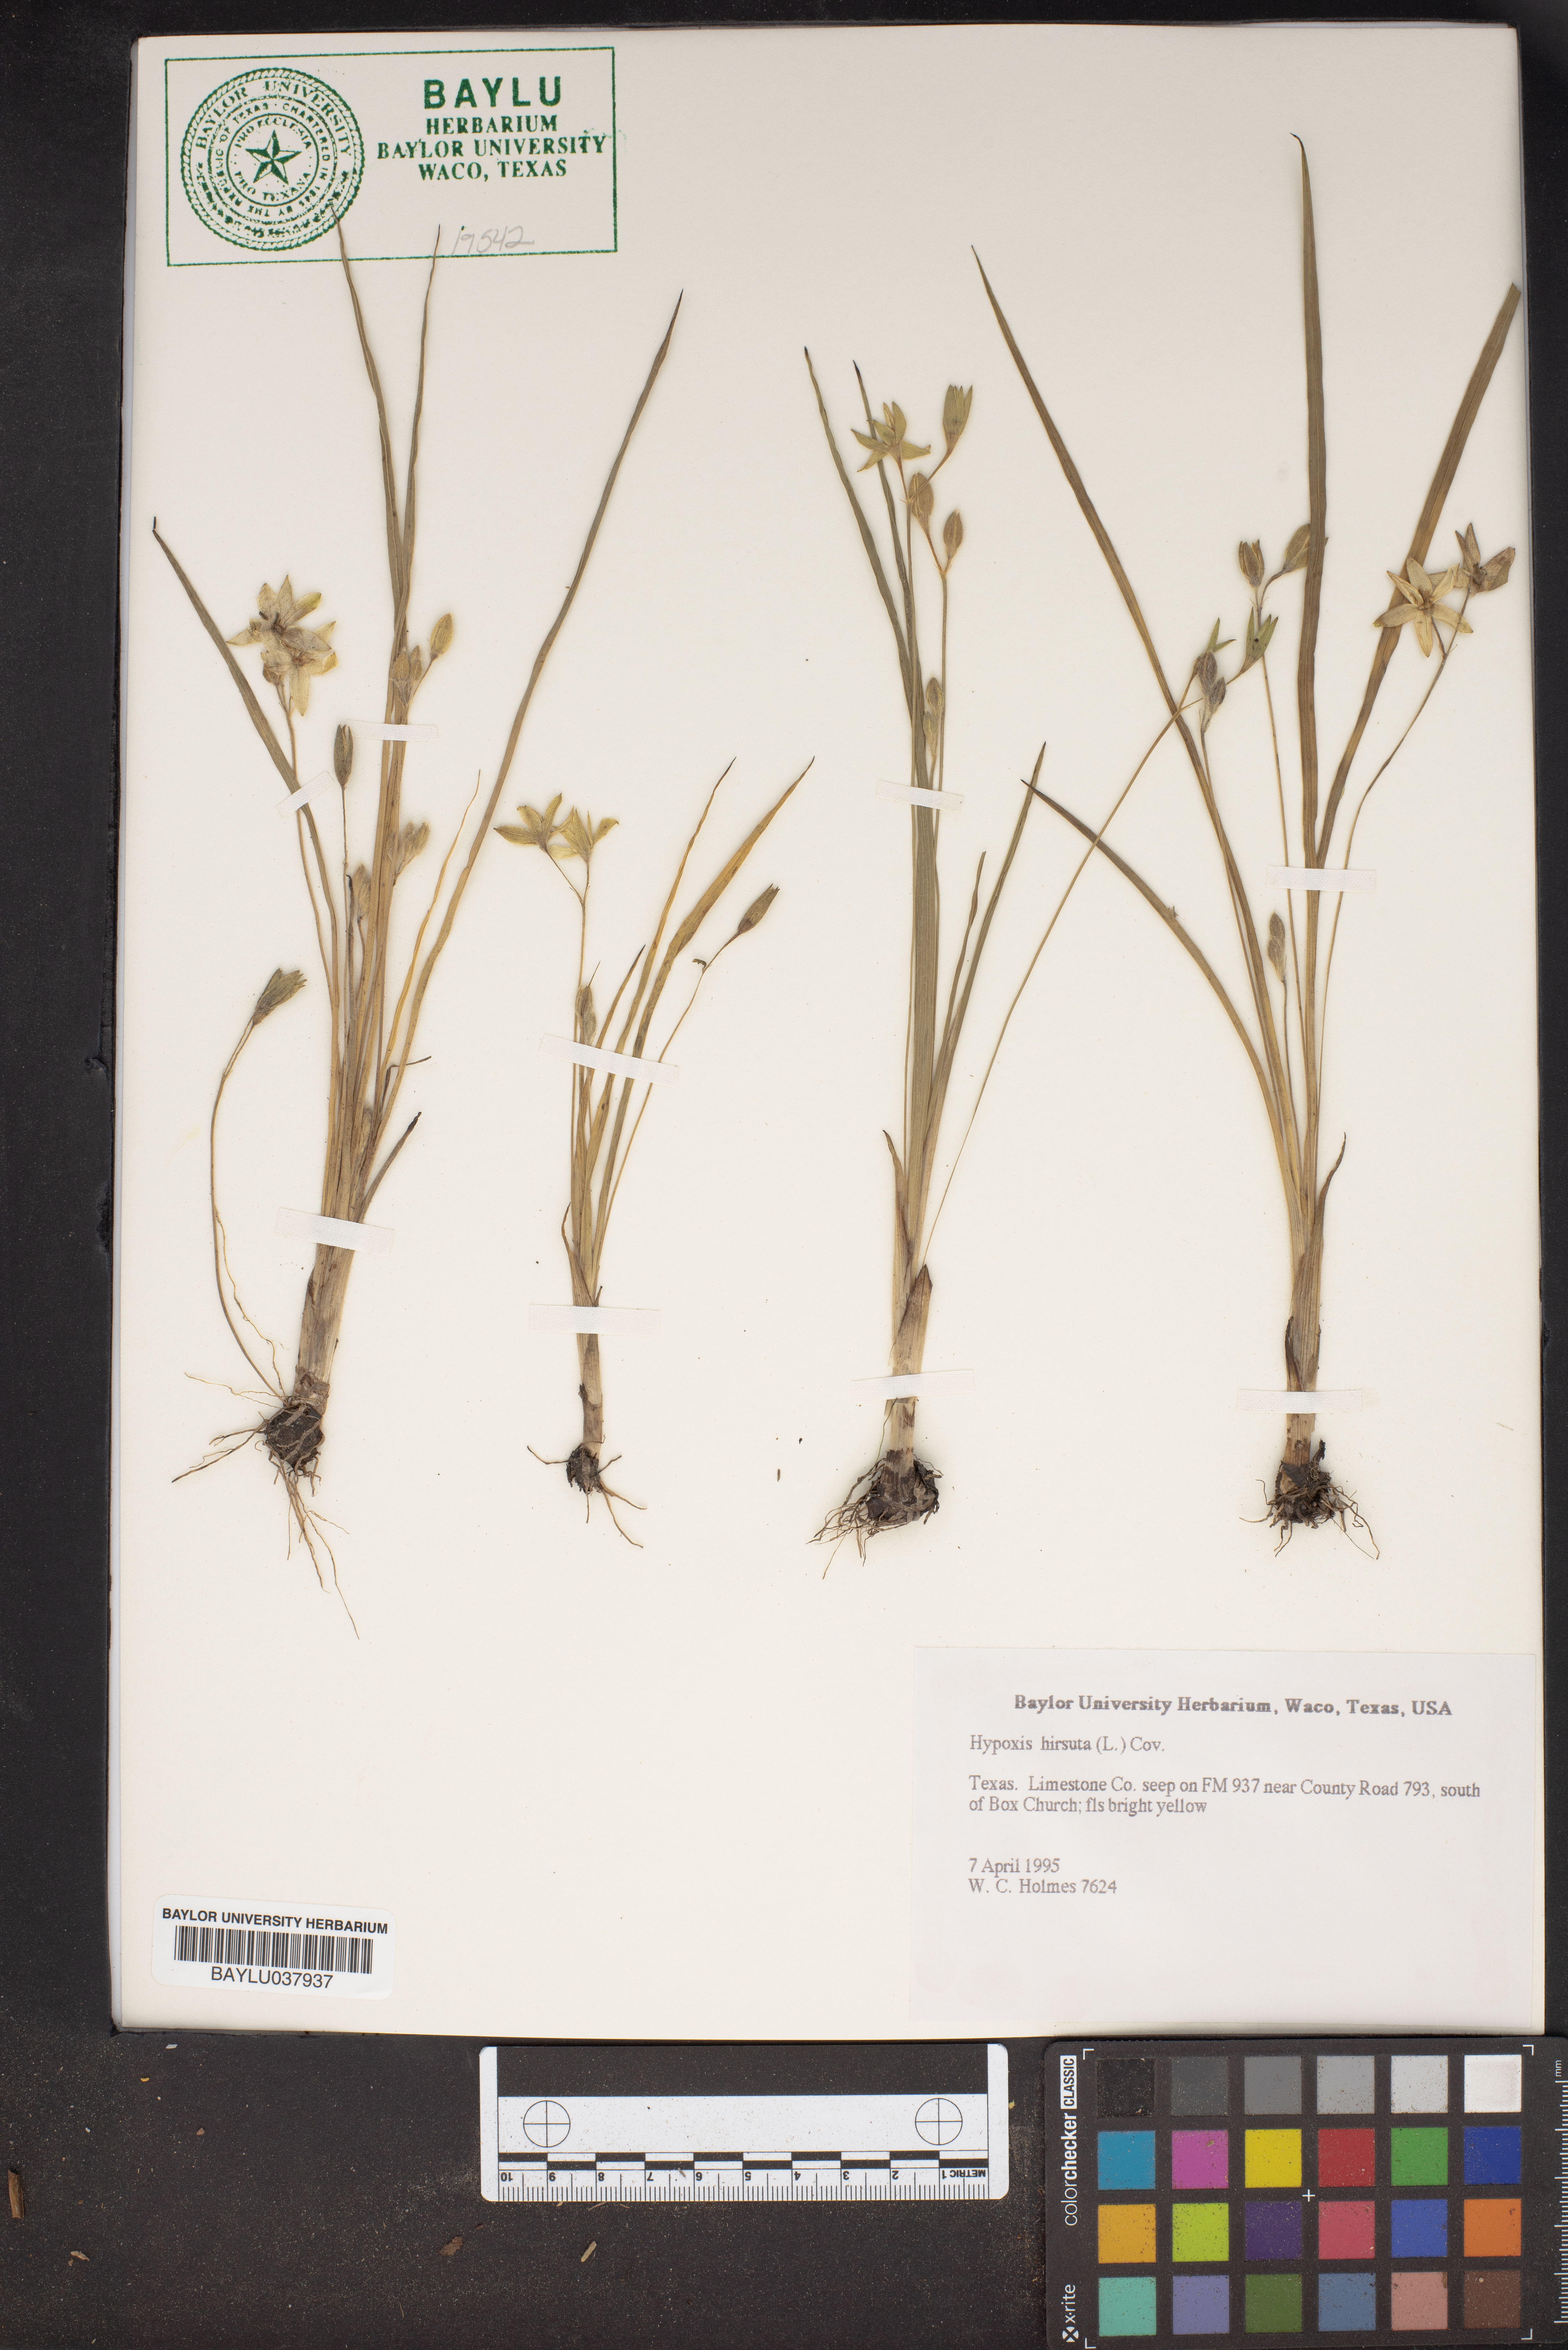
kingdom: Plantae
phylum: Tracheophyta
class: Liliopsida
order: Asparagales
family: Hypoxidaceae
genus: Hypoxis
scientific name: Hypoxis hirsuta
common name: Common goldstar
